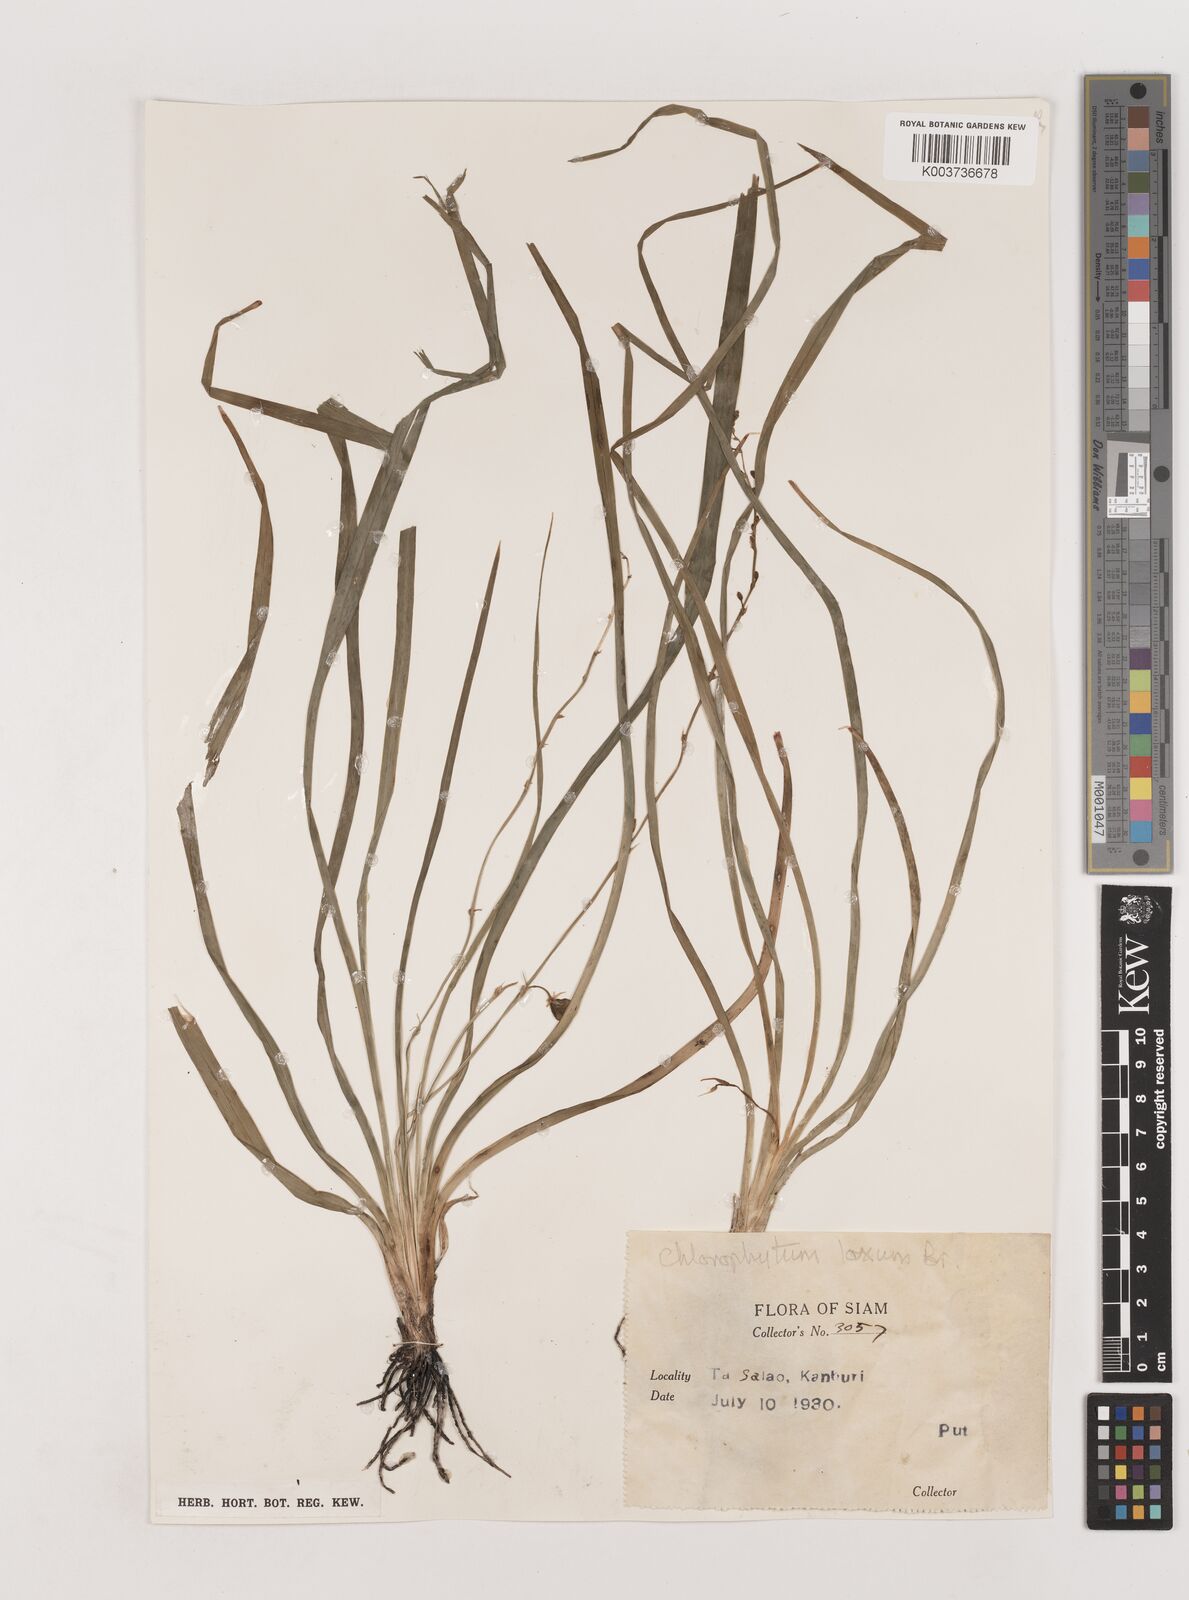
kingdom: Plantae
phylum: Tracheophyta
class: Liliopsida
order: Asparagales
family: Asparagaceae
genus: Chlorophytum
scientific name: Chlorophytum laxum
